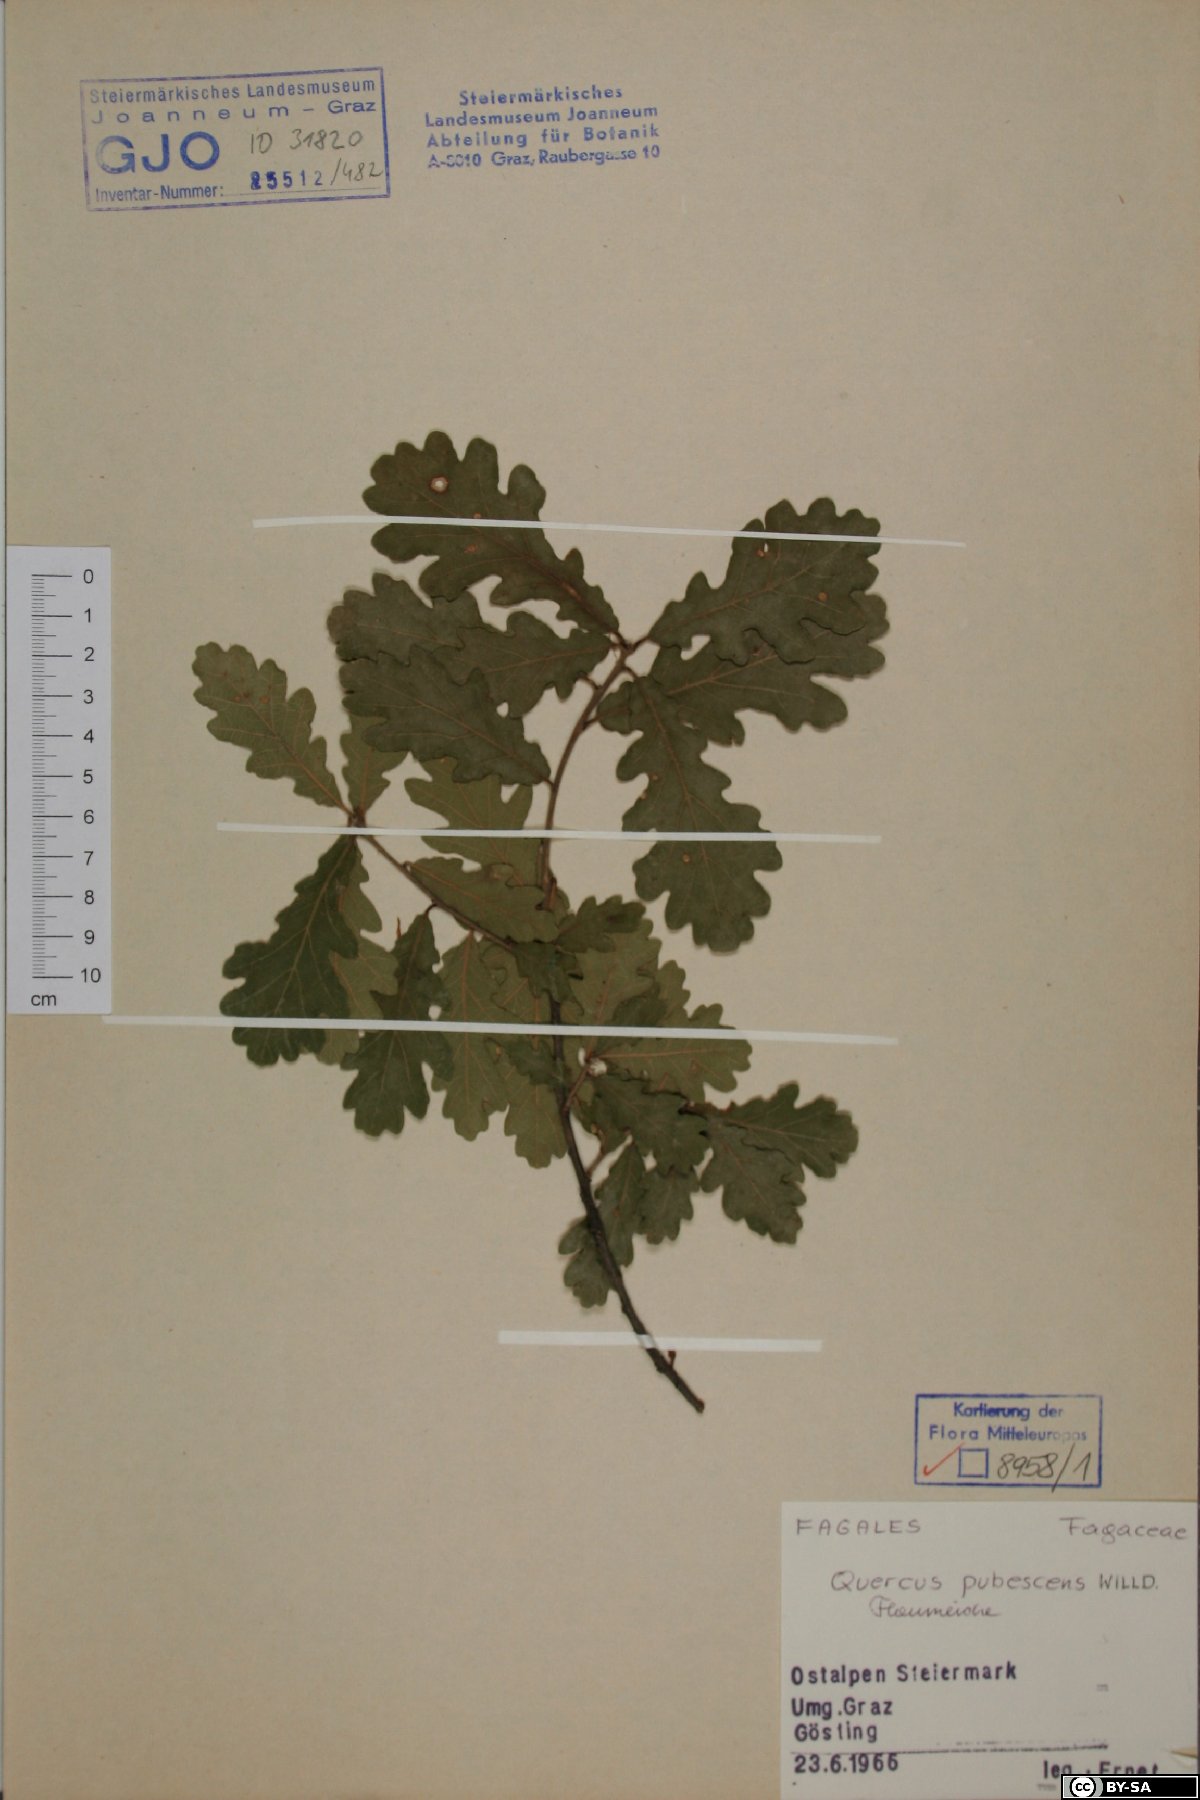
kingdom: Plantae
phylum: Tracheophyta
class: Magnoliopsida
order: Fagales
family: Fagaceae
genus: Quercus
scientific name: Quercus pubescens
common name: Downy oak
